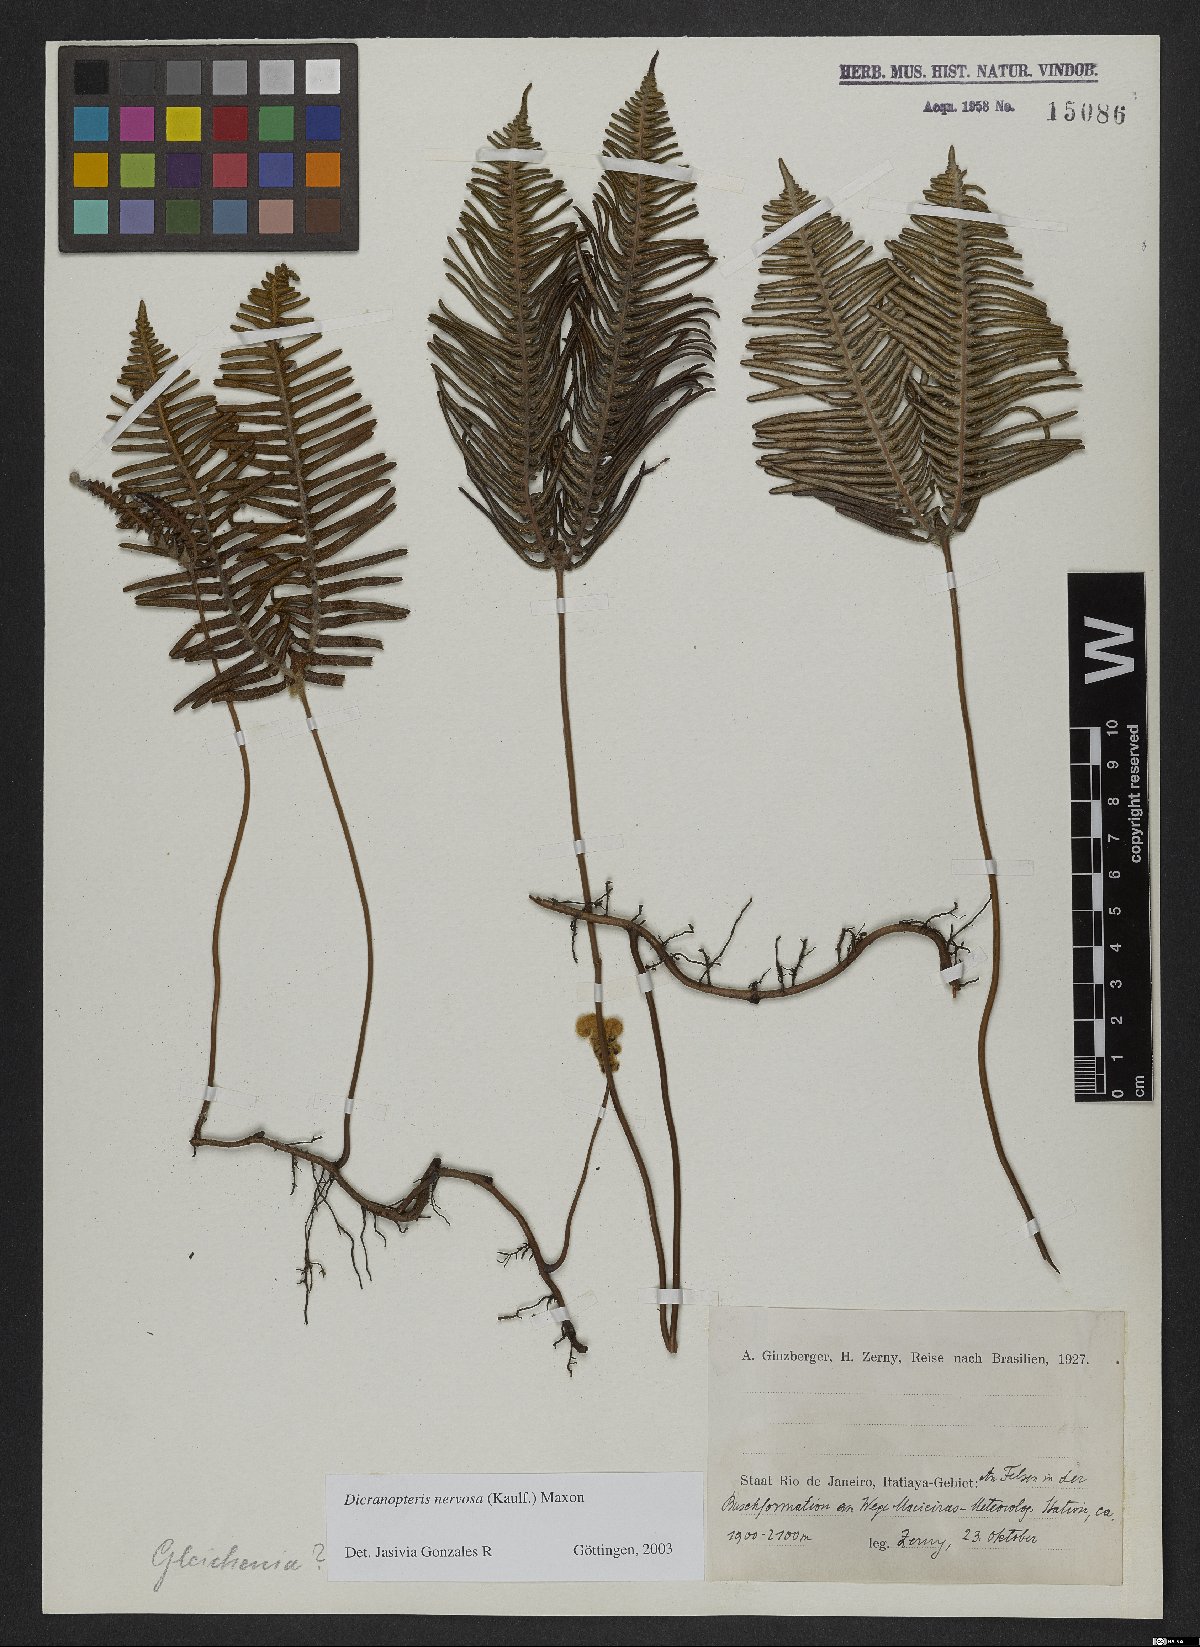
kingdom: Plantae
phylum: Tracheophyta
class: Polypodiopsida
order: Gleicheniales
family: Gleicheniaceae
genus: Dicranopteris
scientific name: Dicranopteris nervosa
